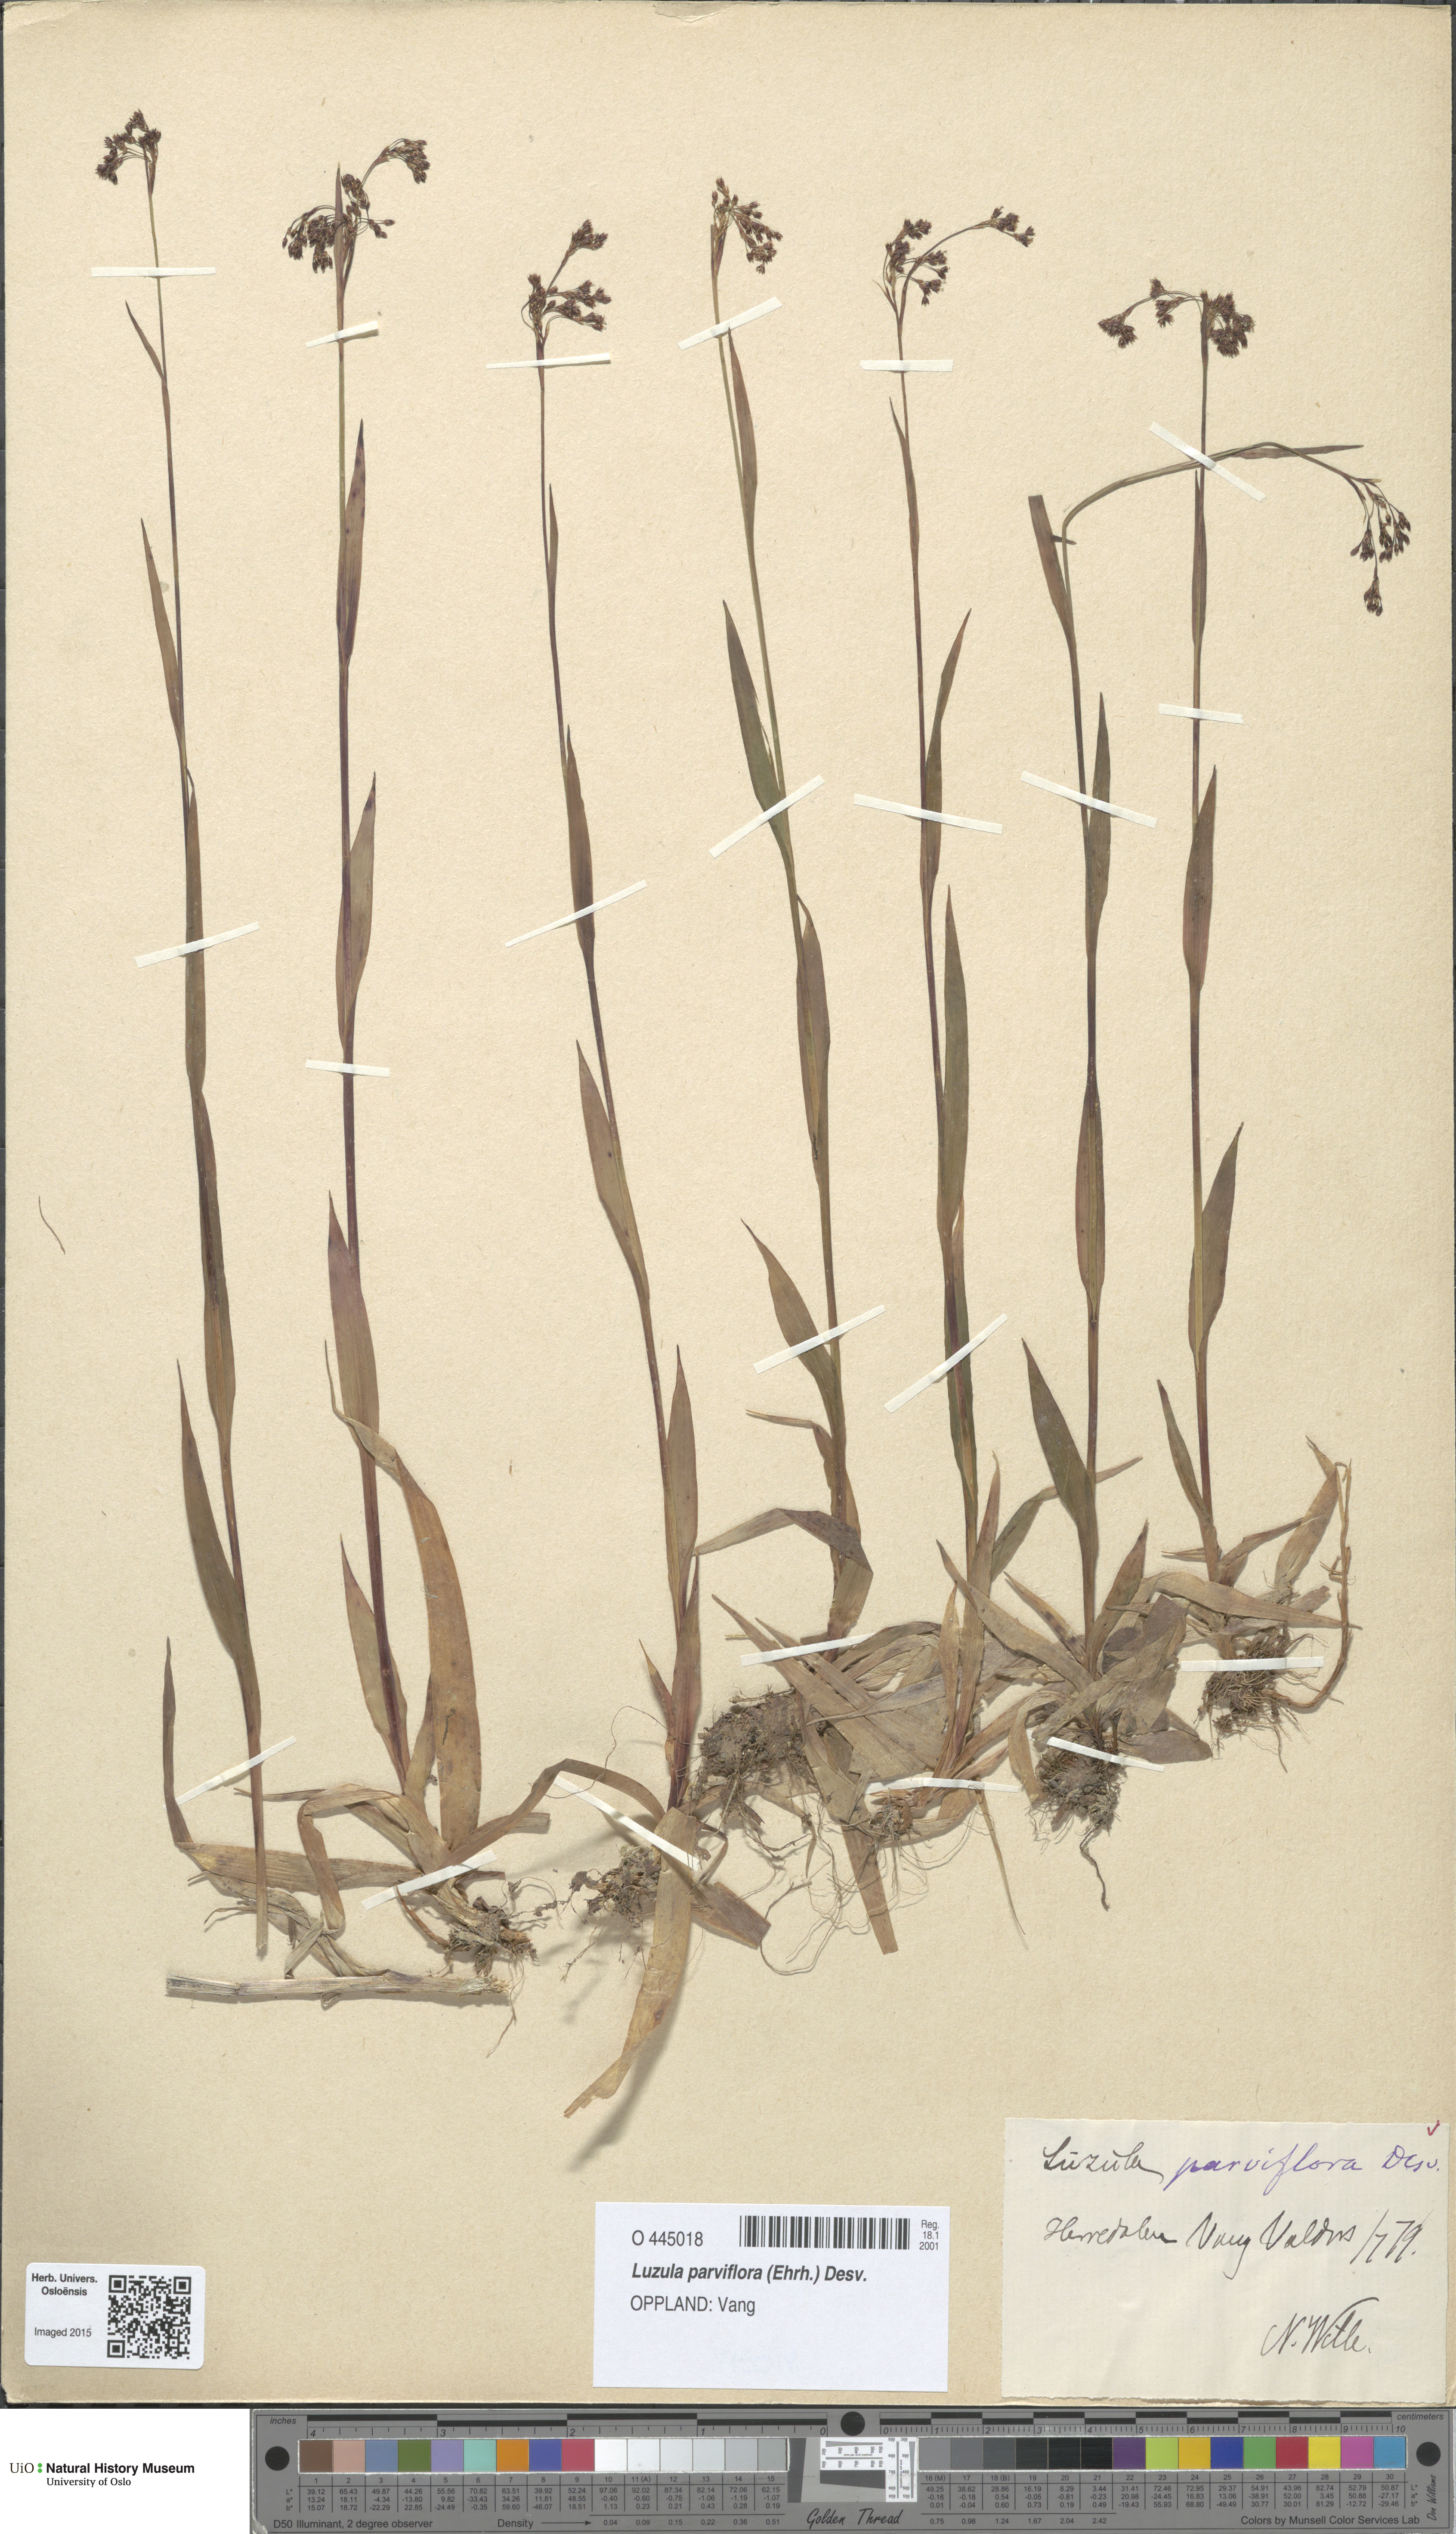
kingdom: Plantae
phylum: Tracheophyta
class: Liliopsida
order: Poales
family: Juncaceae
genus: Luzula
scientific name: Luzula parviflora
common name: Millet woodrush
